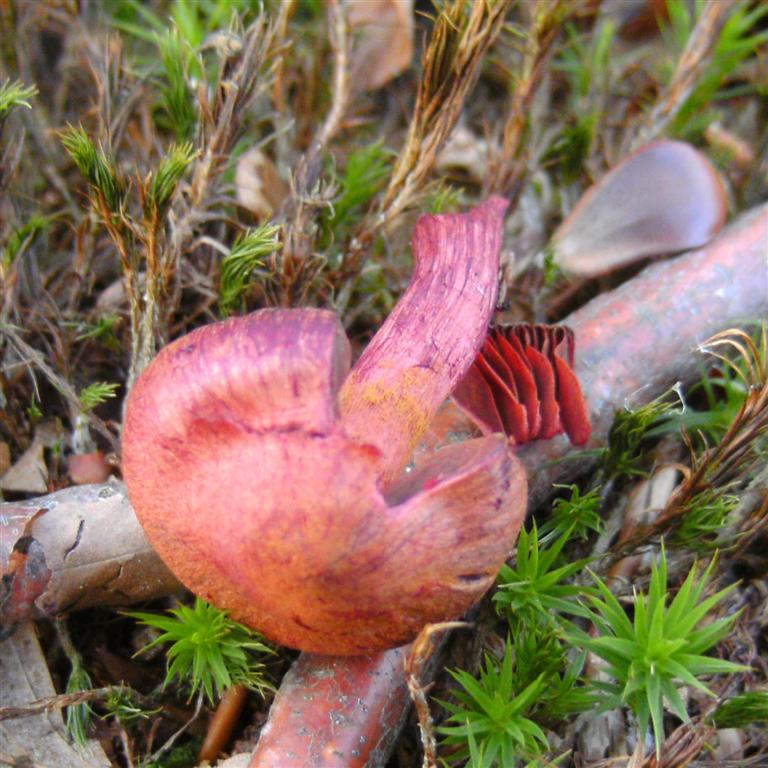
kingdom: Fungi
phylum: Basidiomycota
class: Agaricomycetes
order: Agaricales
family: Cortinariaceae
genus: Cortinarius
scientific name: Cortinarius sanguineus
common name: Bloodred webcap
